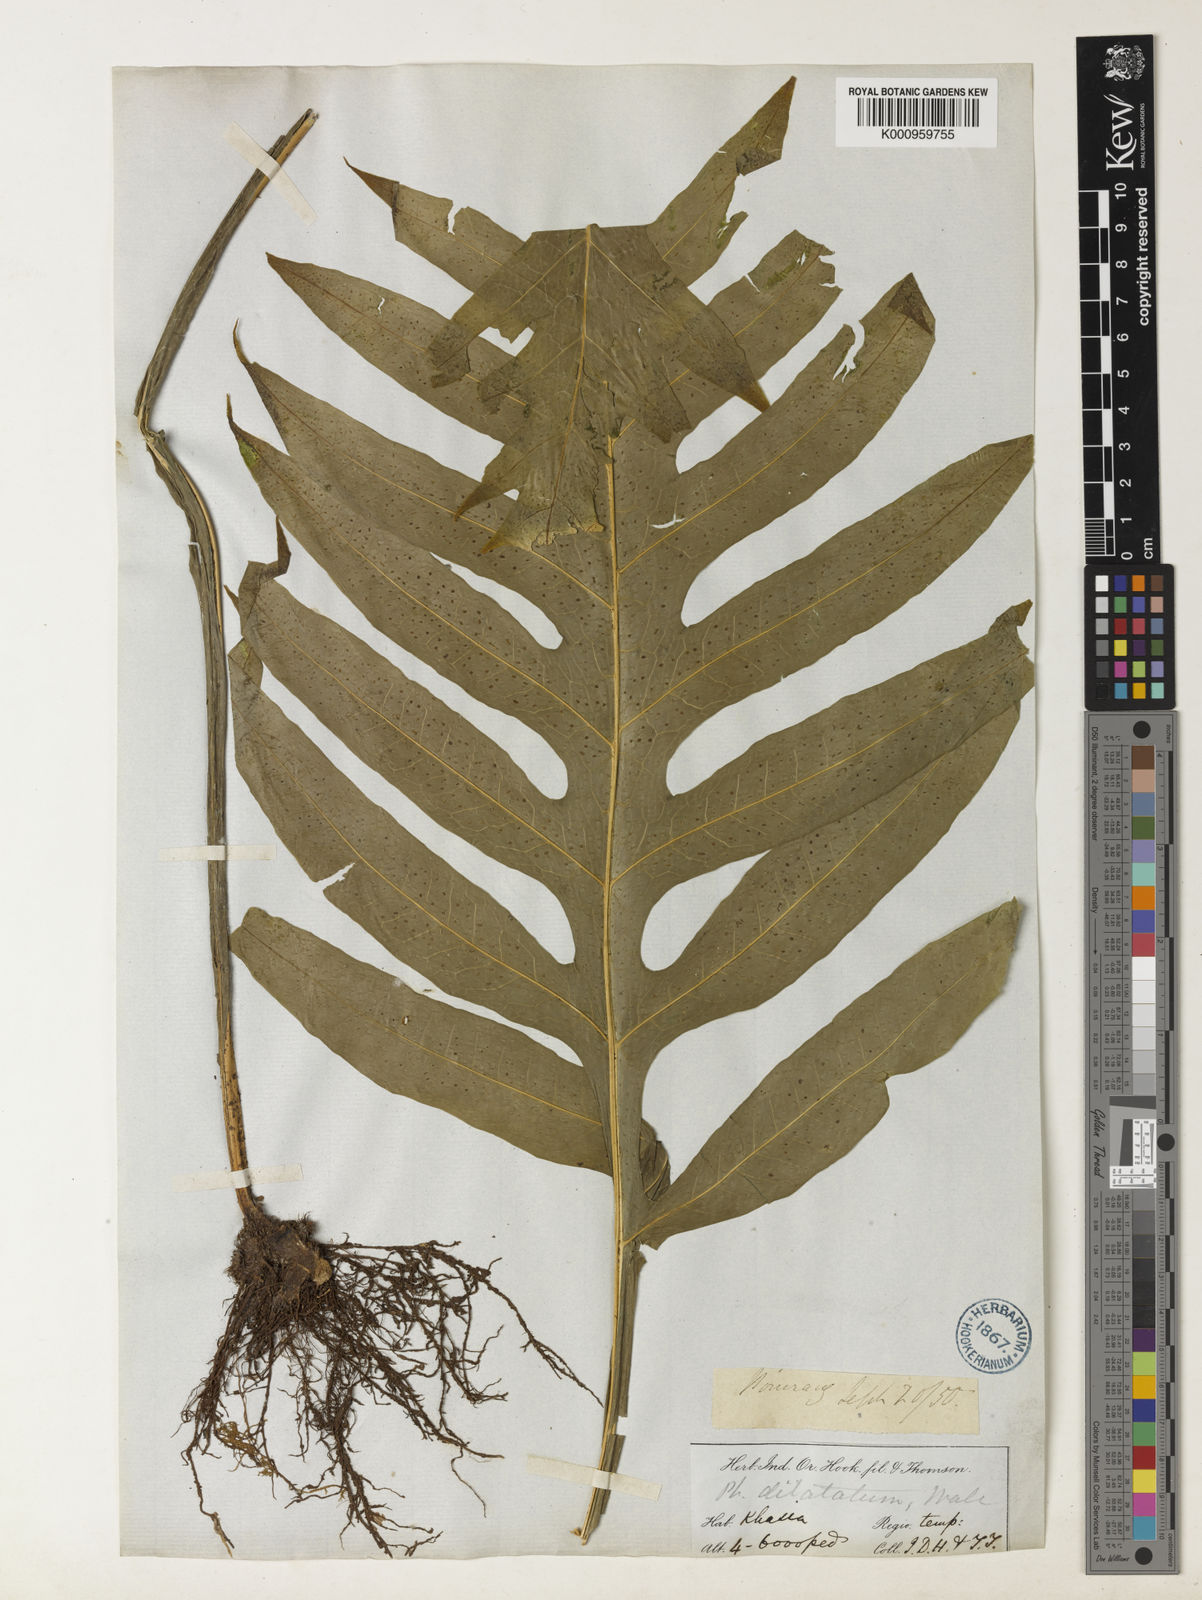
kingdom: Plantae
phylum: Tracheophyta
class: Polypodiopsida
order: Polypodiales
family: Polypodiaceae
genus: Leptochilus
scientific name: Leptochilus insignis
